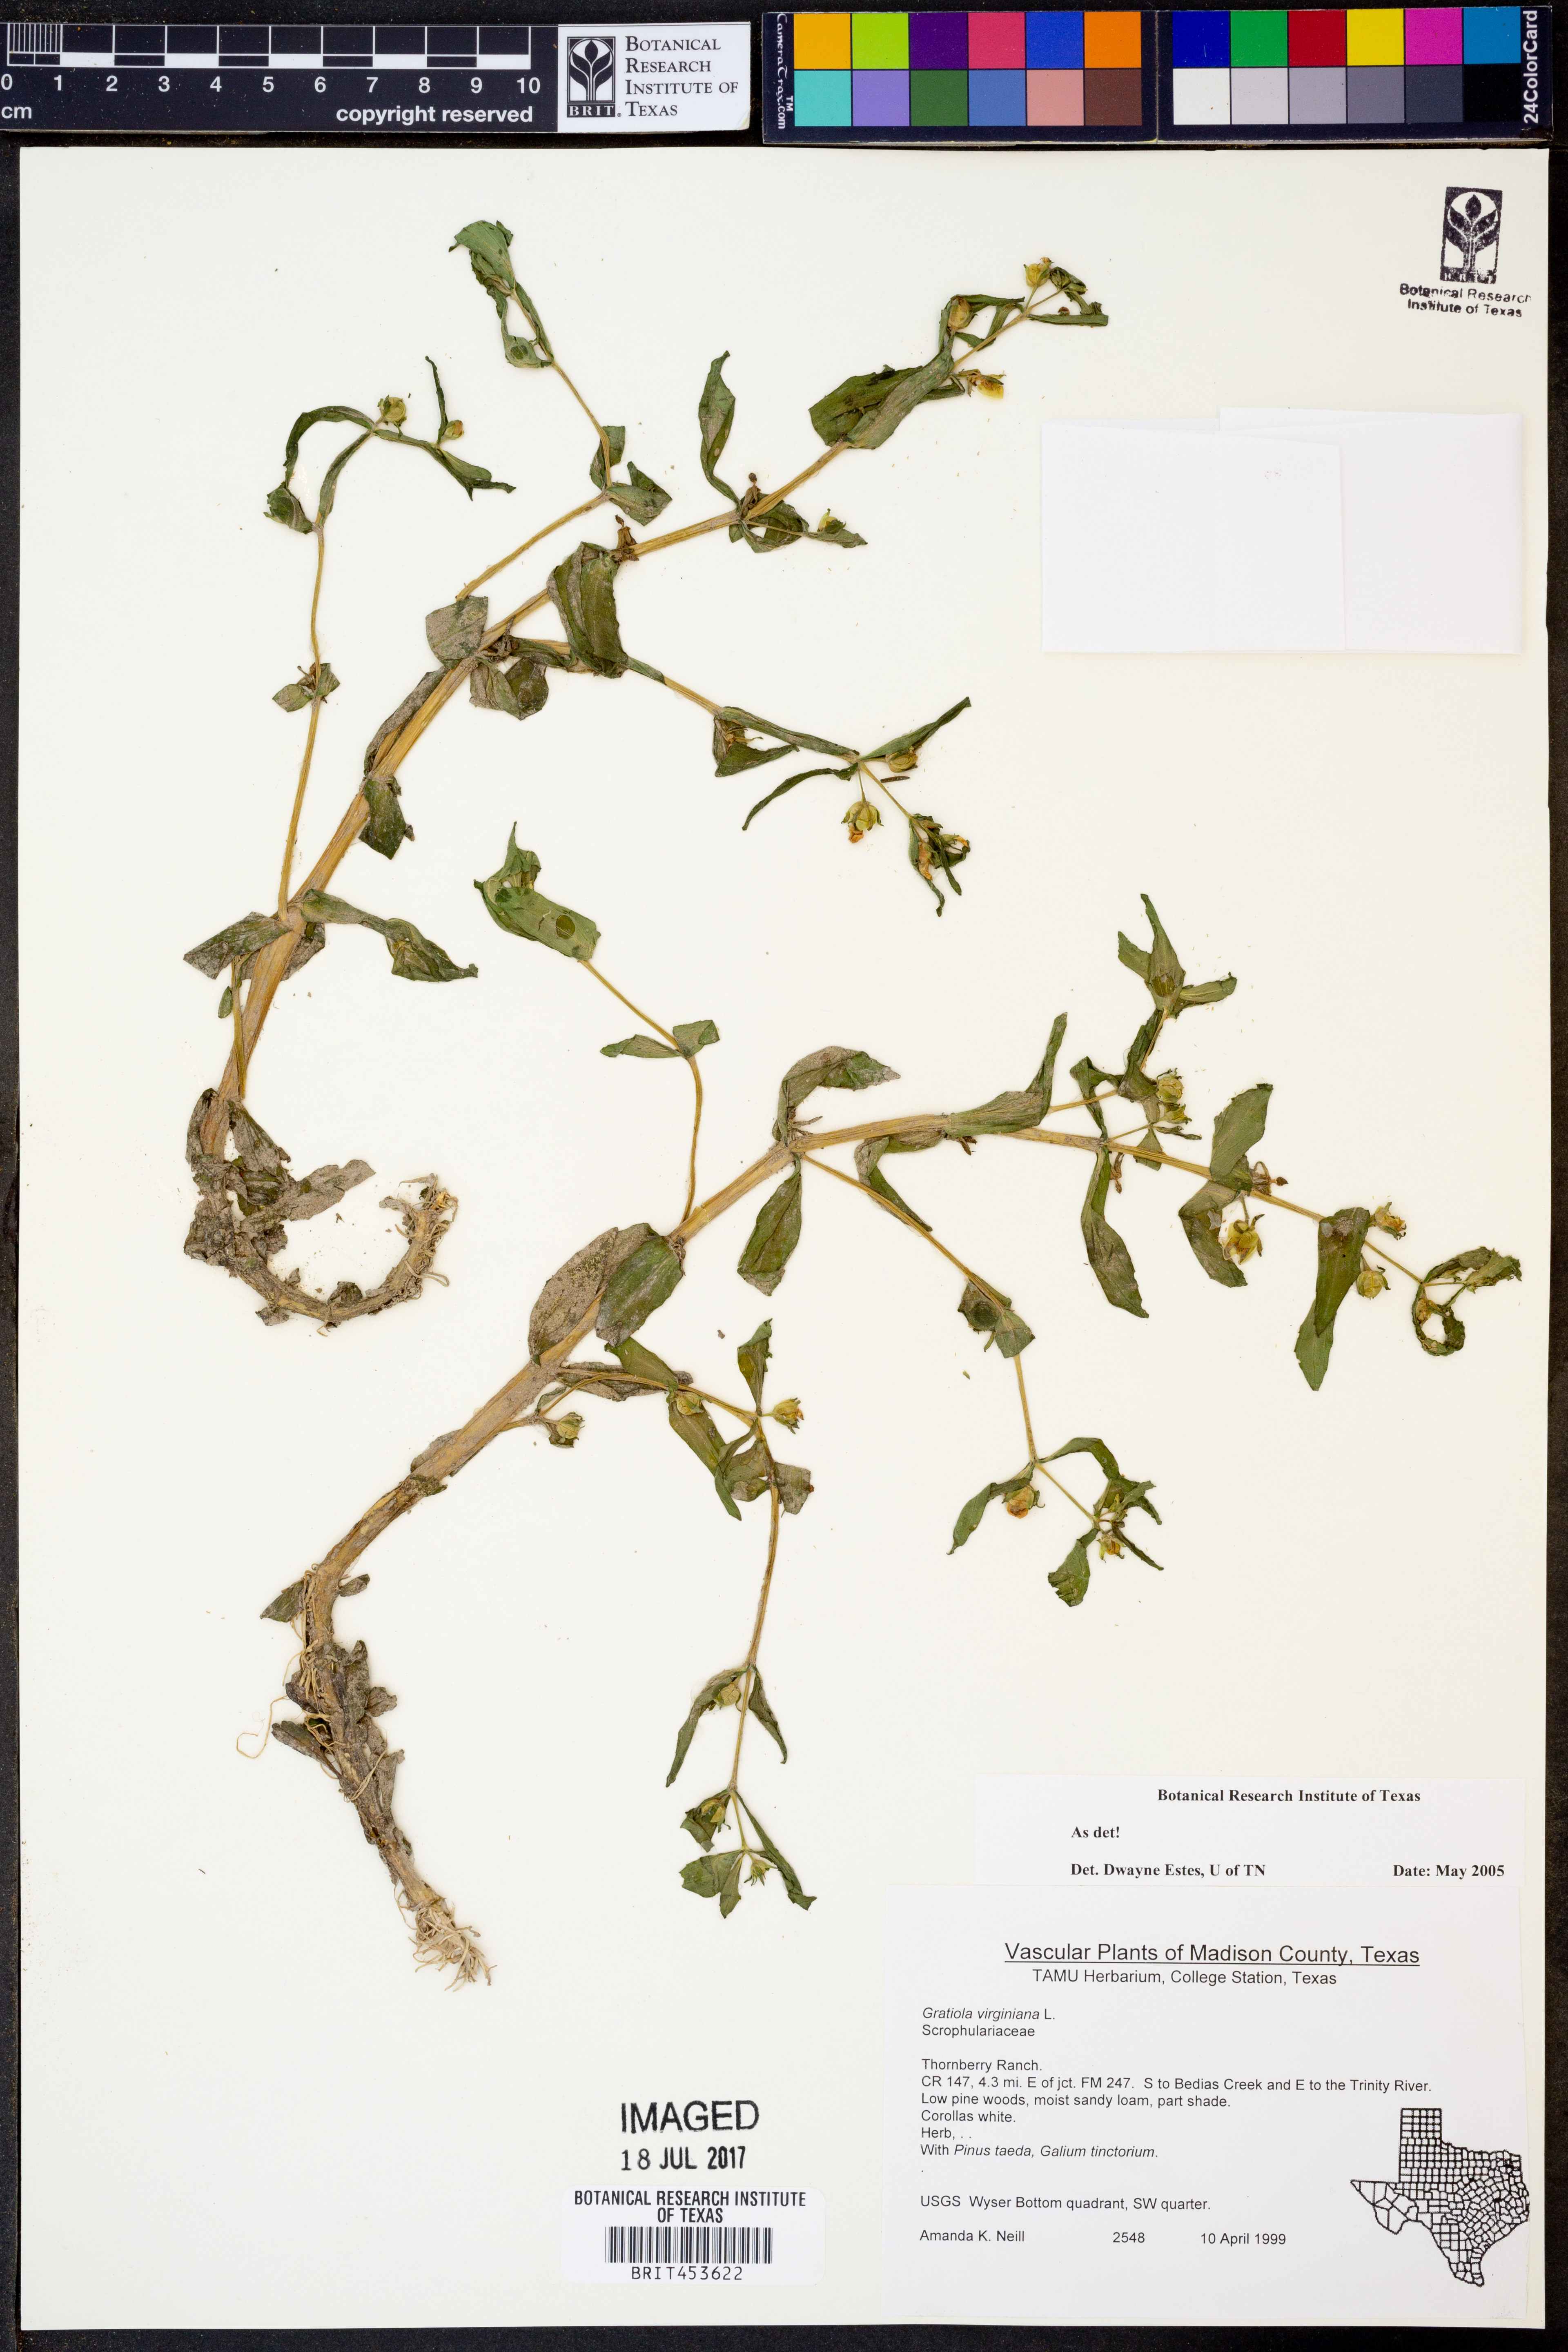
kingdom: Plantae
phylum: Tracheophyta
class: Magnoliopsida
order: Lamiales
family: Plantaginaceae
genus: Gratiola
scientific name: Gratiola virginiana
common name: Roundfruit hedgehyssop
